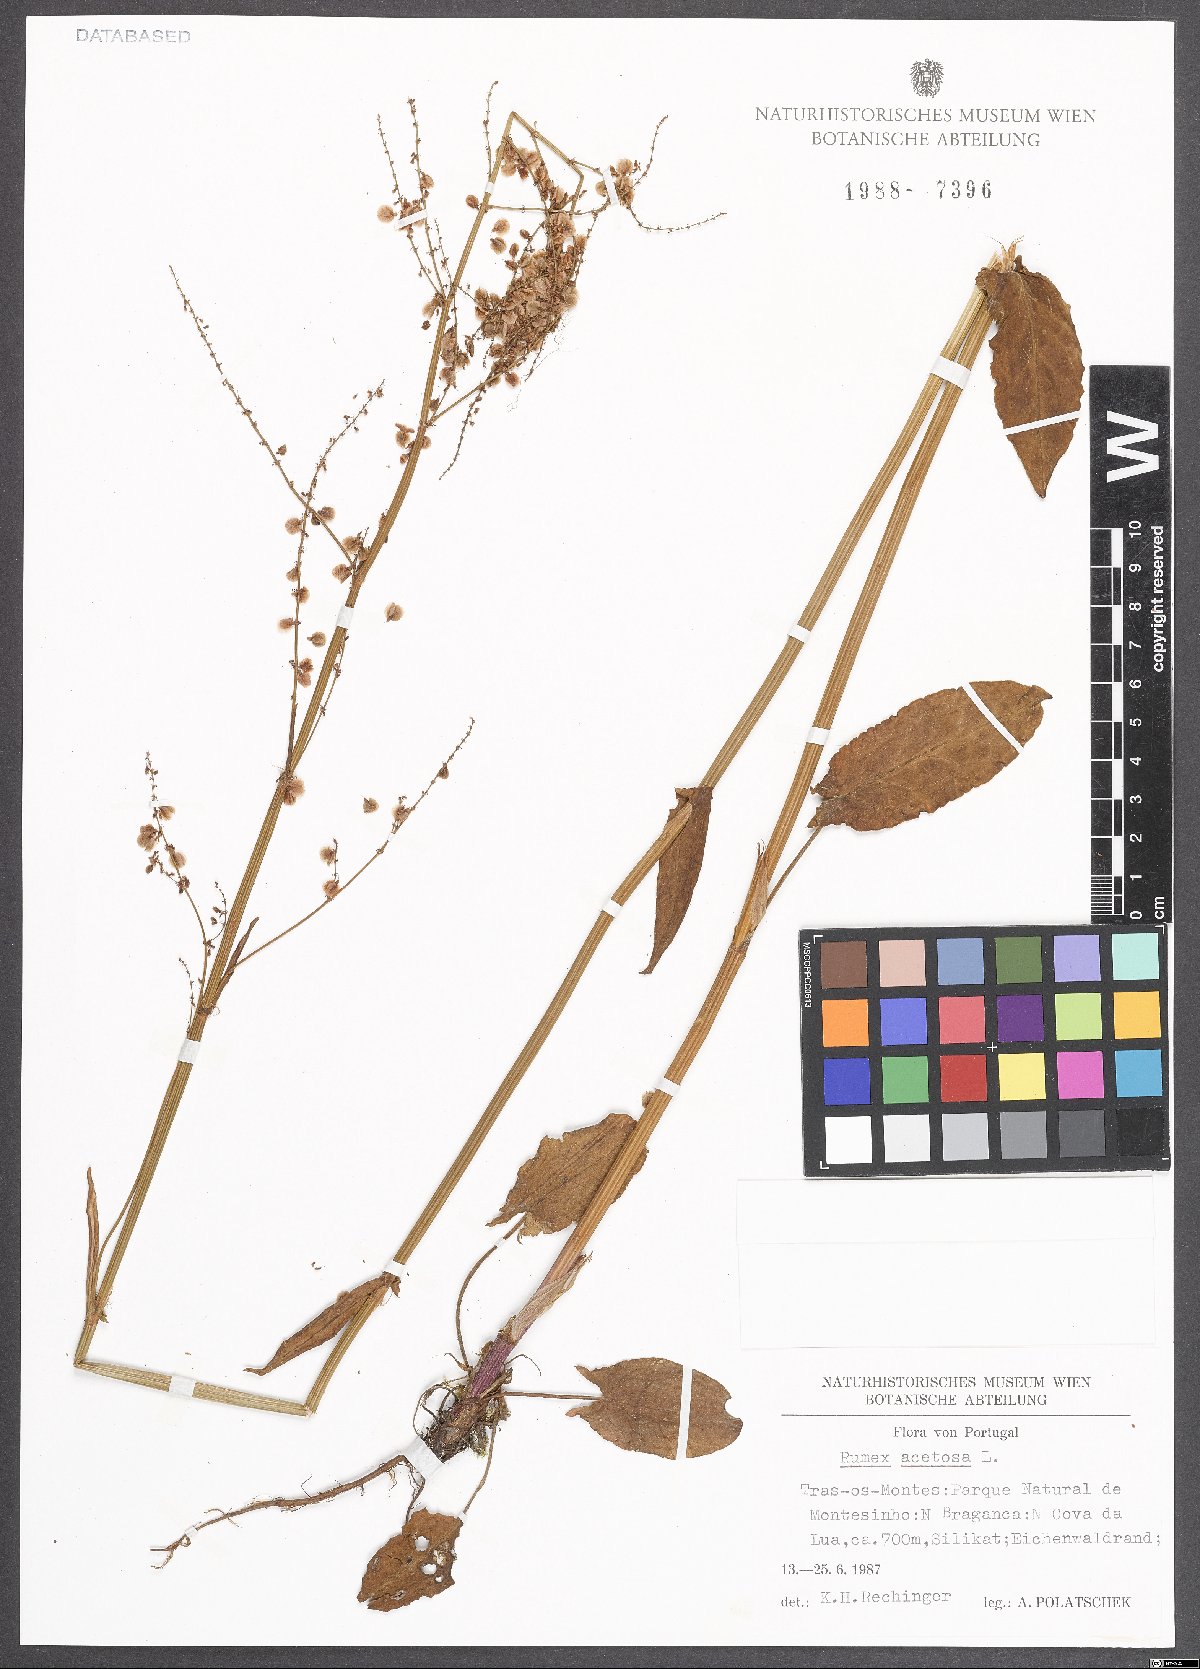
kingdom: Plantae
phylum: Tracheophyta
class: Magnoliopsida
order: Caryophyllales
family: Polygonaceae
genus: Rumex
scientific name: Rumex acetosa
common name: Garden sorrel
